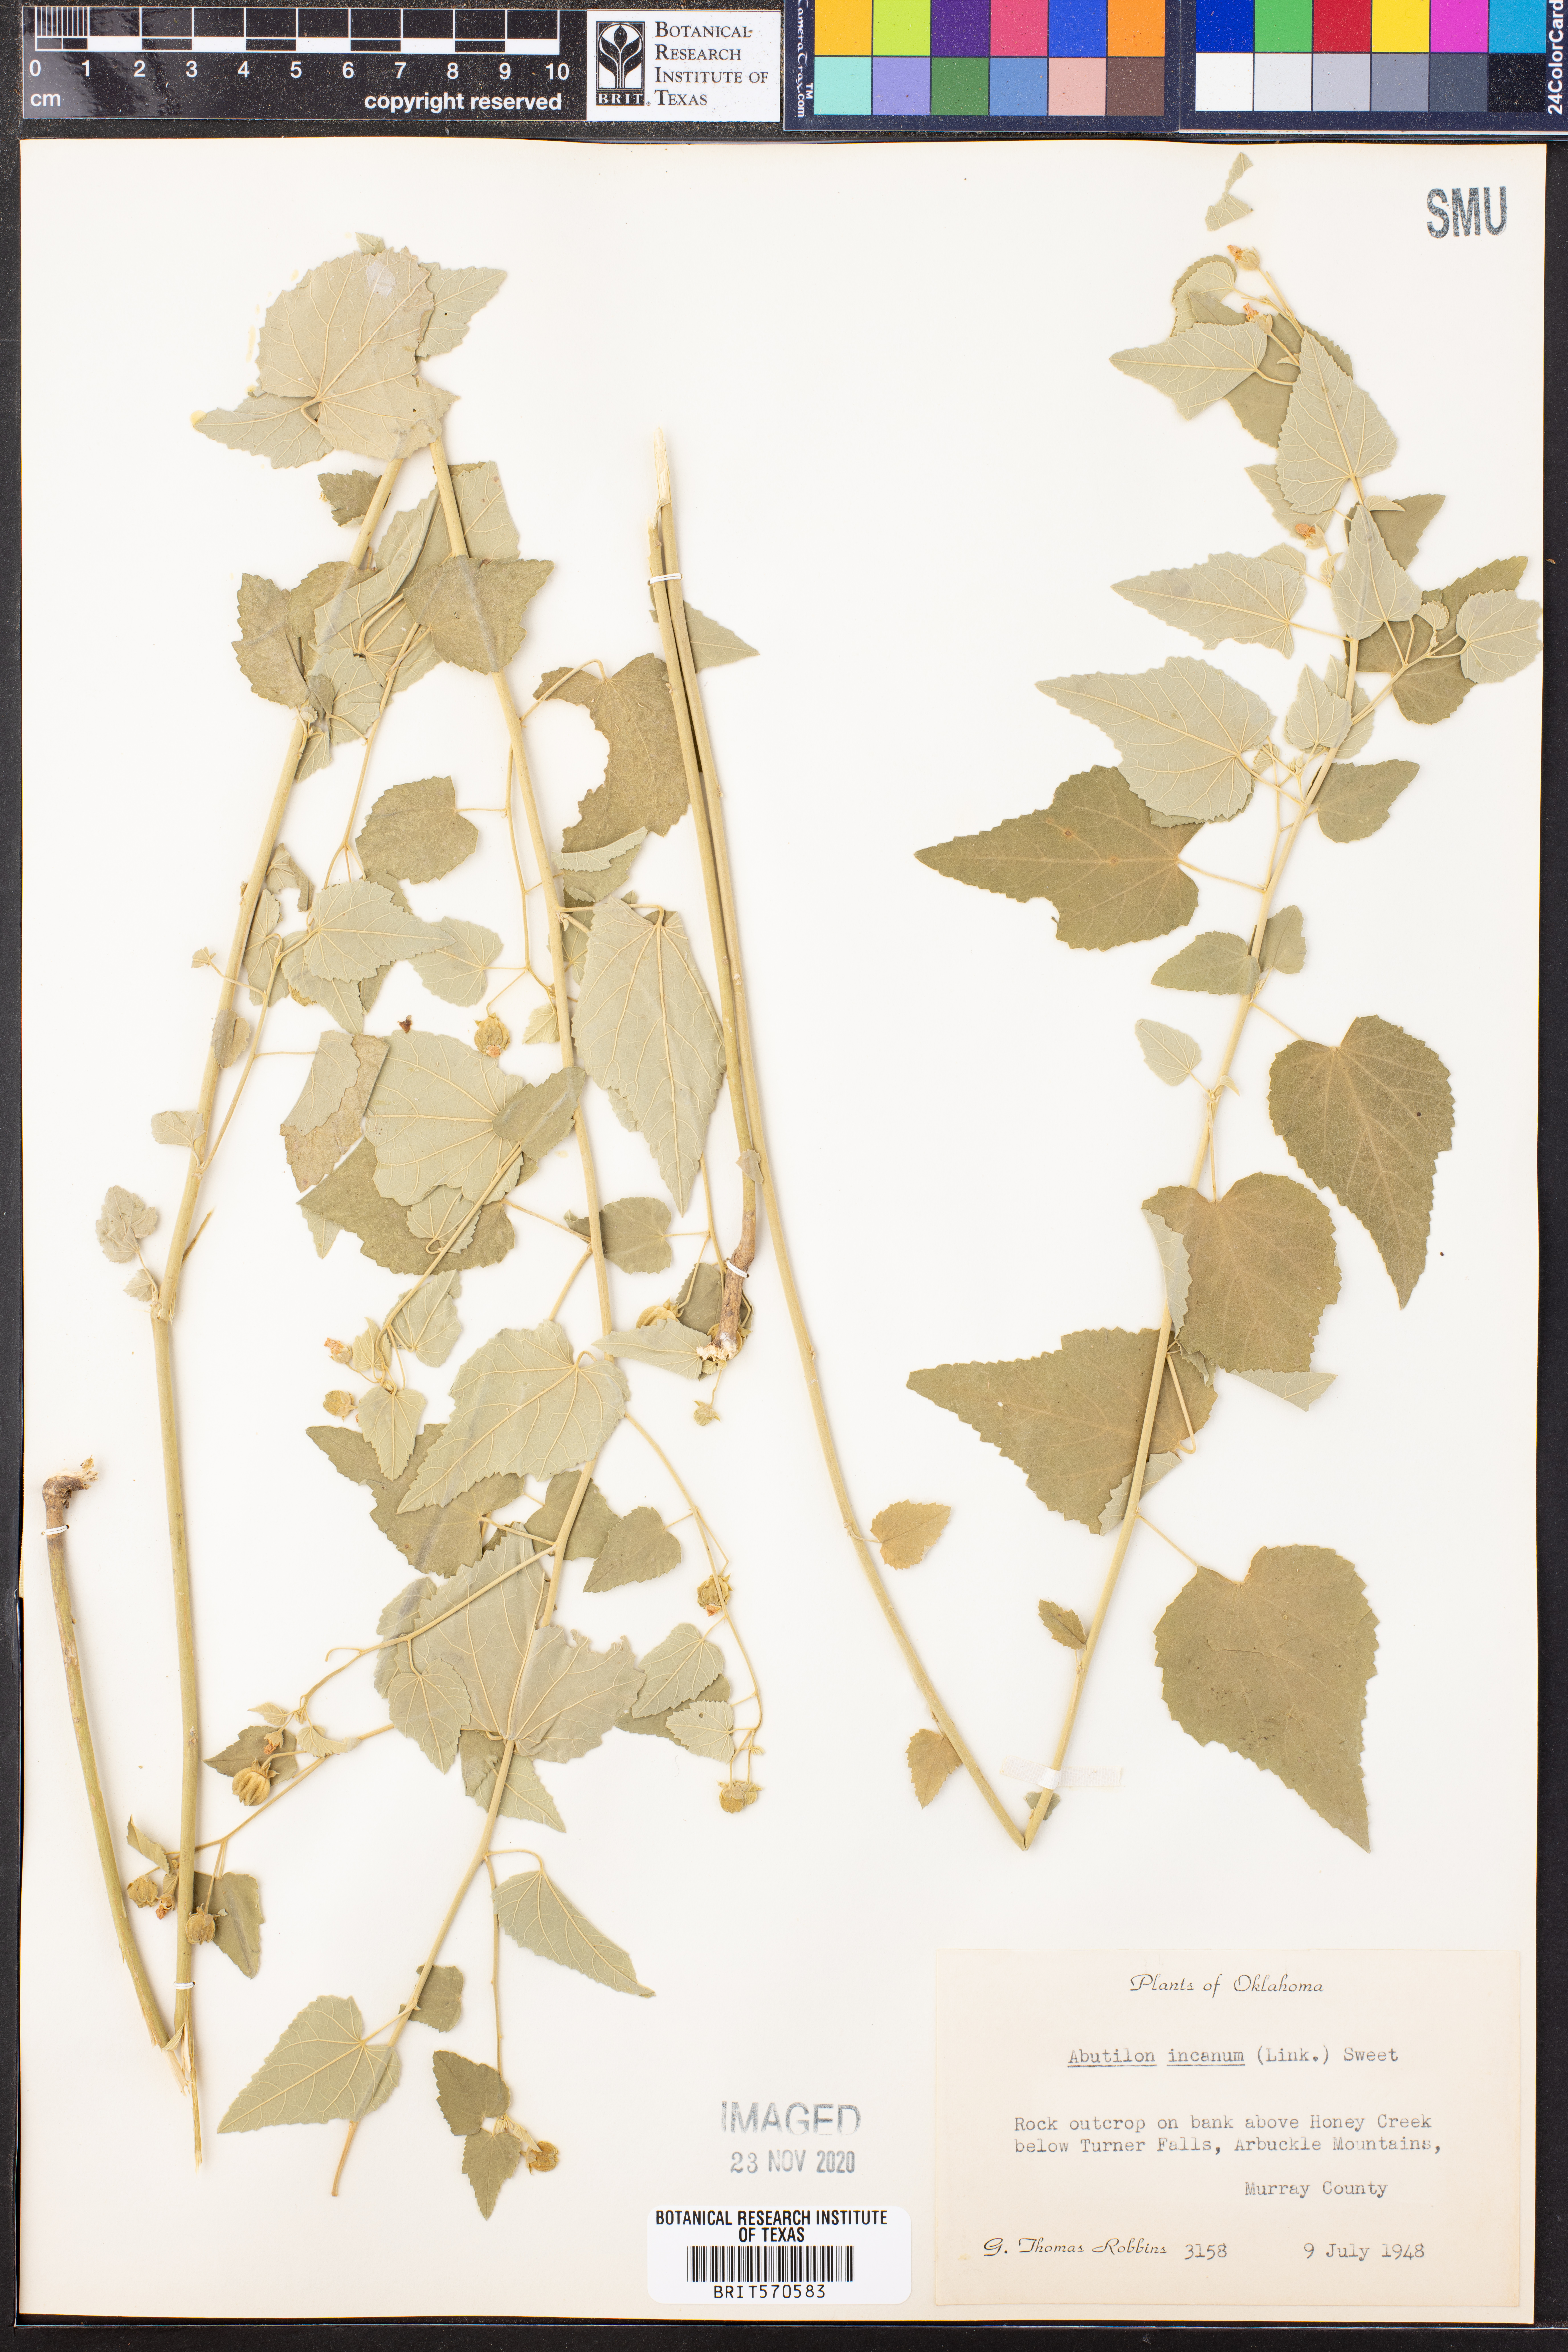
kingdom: Plantae
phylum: Tracheophyta
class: Magnoliopsida
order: Malvales
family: Malvaceae
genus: Abutilon
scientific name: Abutilon incanum
